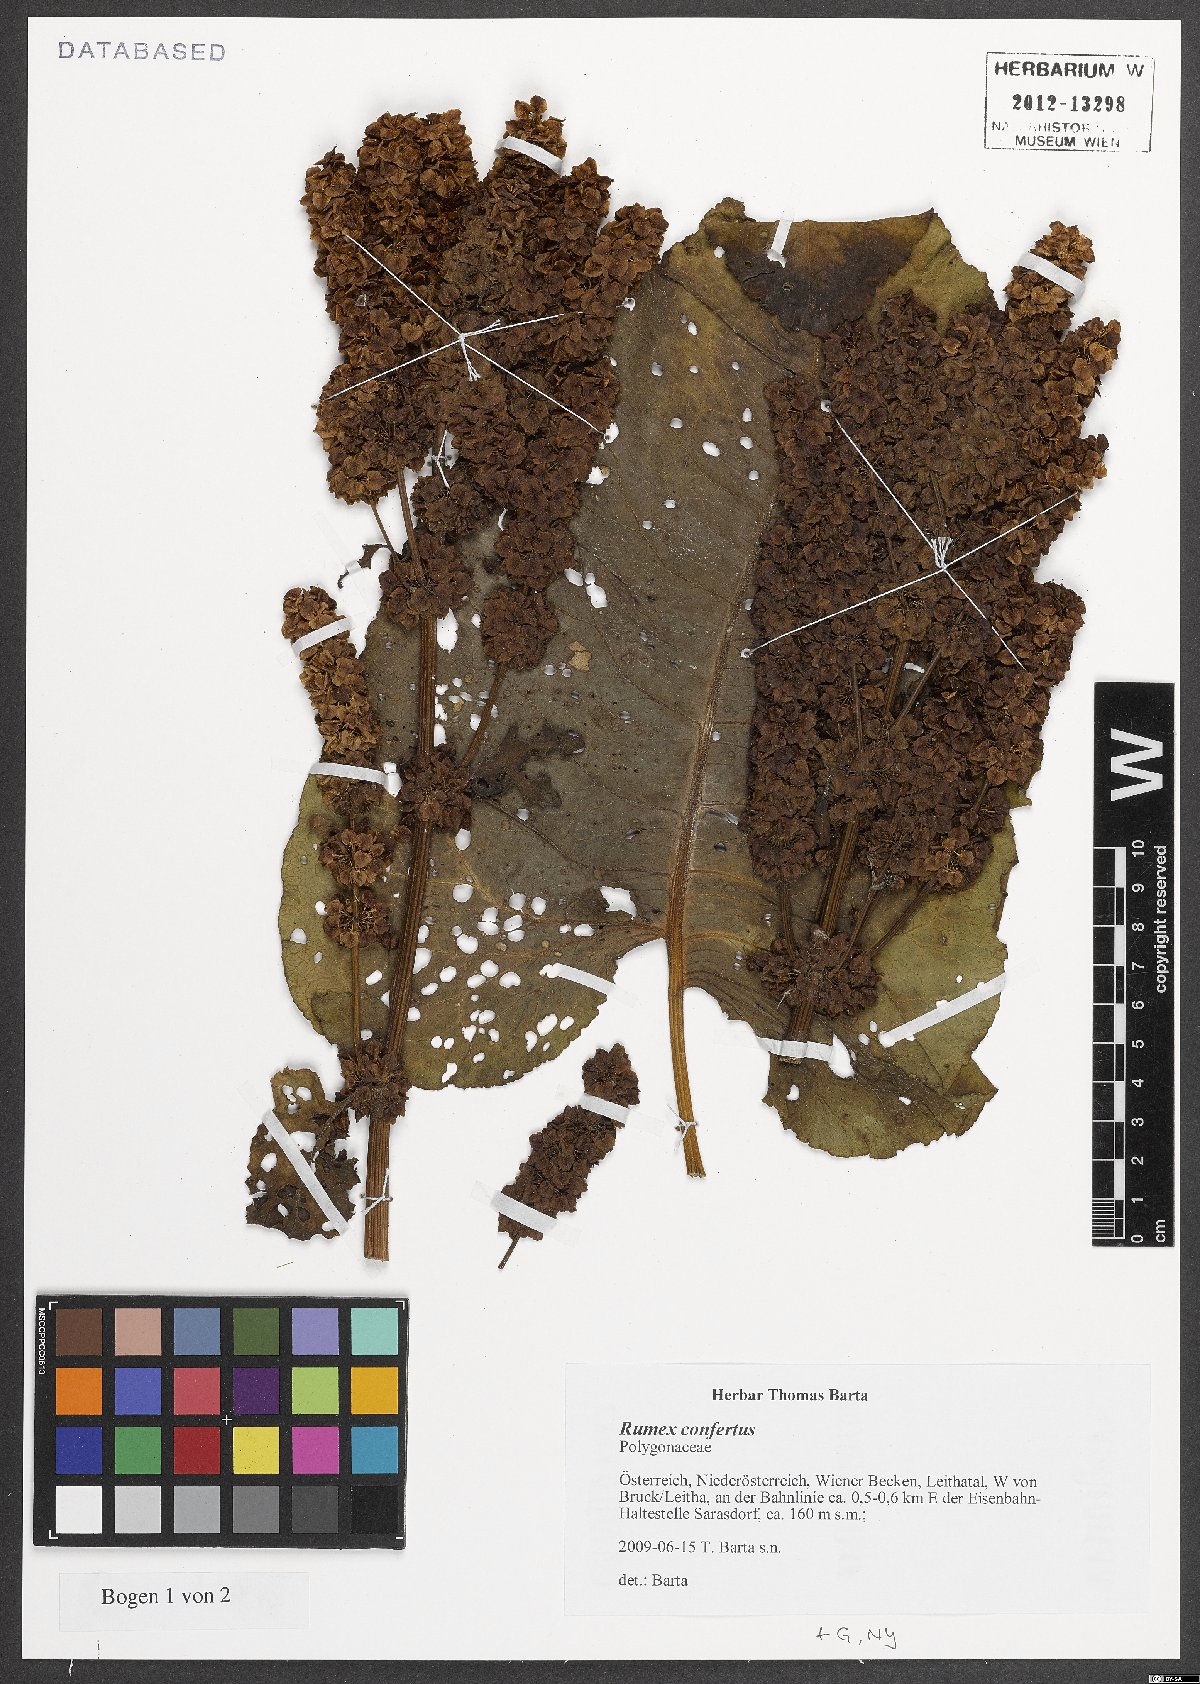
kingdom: Plantae
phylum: Tracheophyta
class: Magnoliopsida
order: Caryophyllales
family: Polygonaceae
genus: Rumex
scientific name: Rumex confertus
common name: Russian dock
